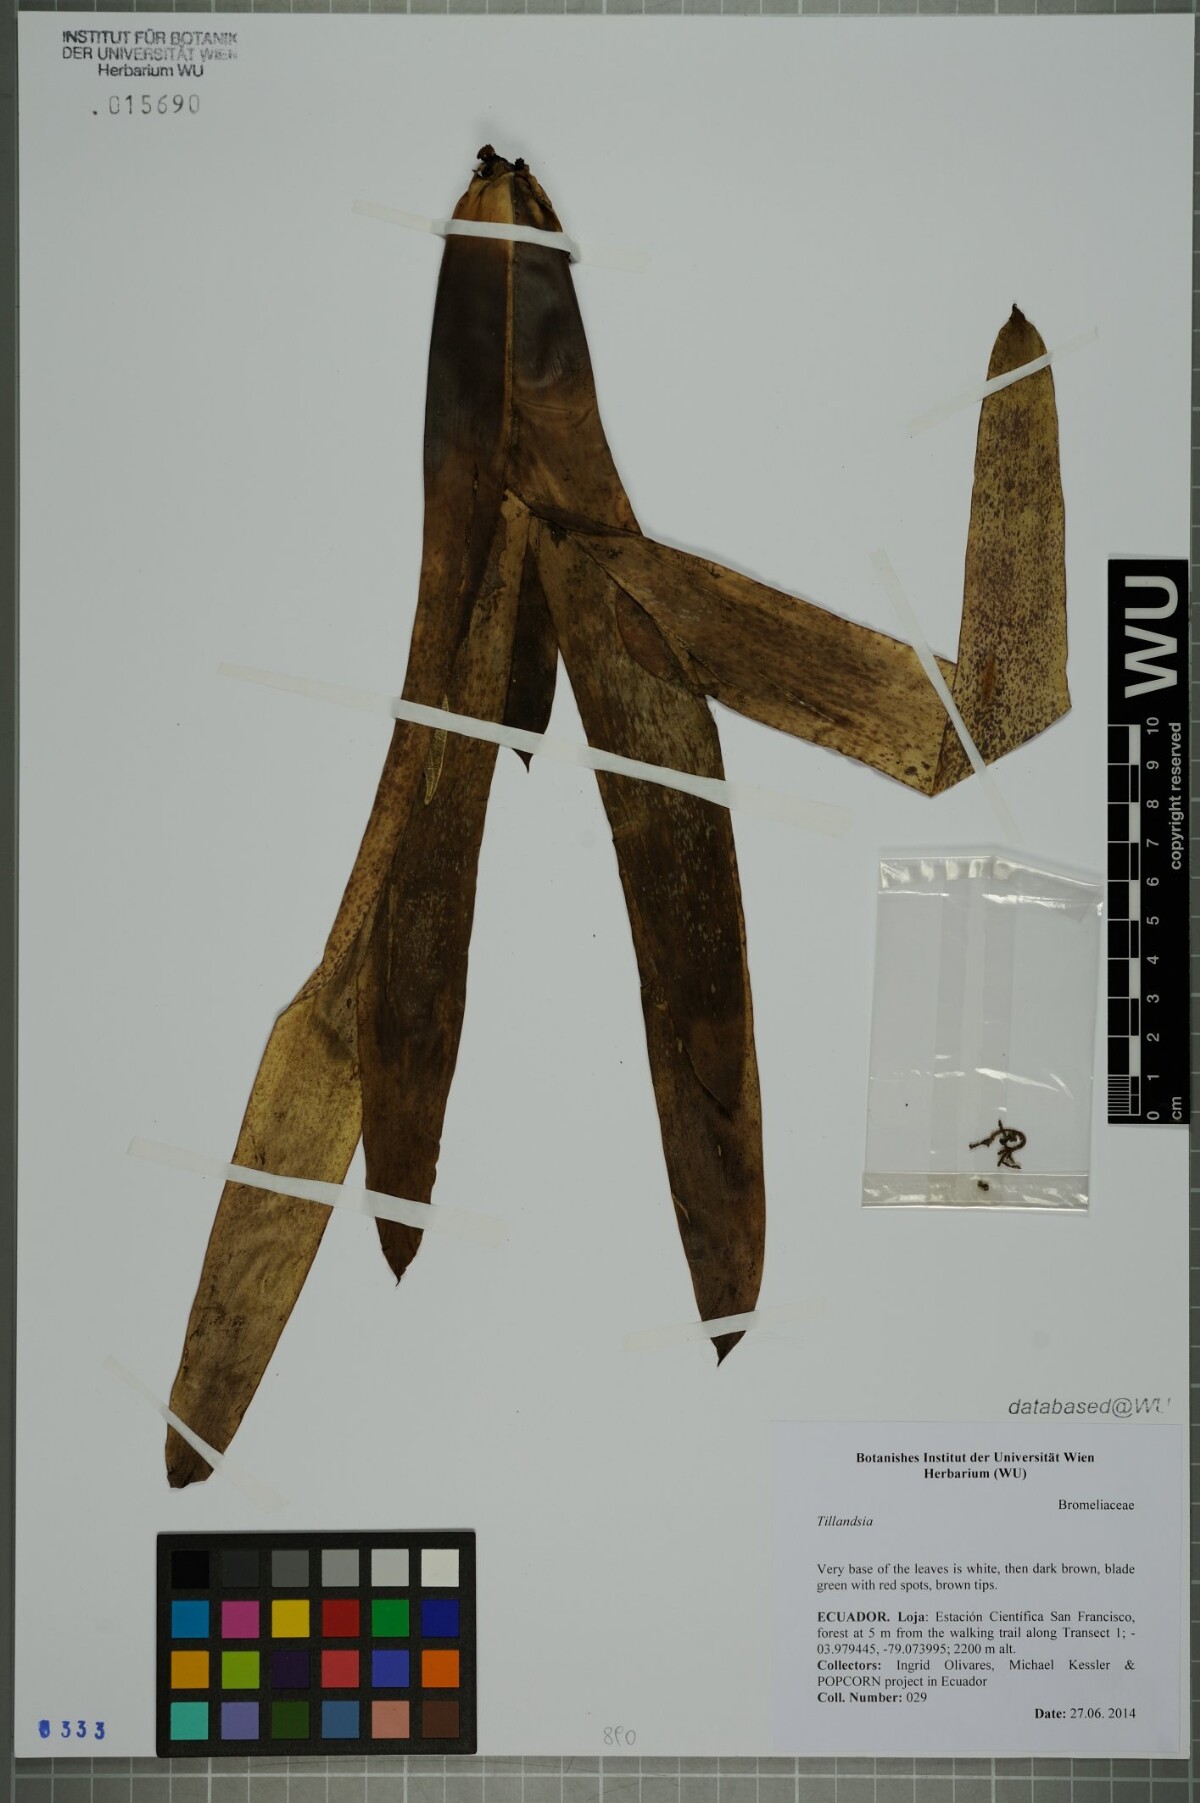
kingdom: Plantae
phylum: Tracheophyta
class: Liliopsida
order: Poales
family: Bromeliaceae
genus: Tillandsia
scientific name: Tillandsia
